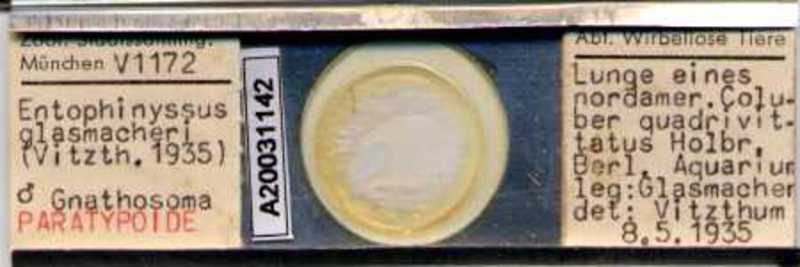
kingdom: Animalia
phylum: Arthropoda
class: Arachnida
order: Mesostigmata
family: Entonyssidae
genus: Entophionyssus
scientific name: Entophionyssus glasmacheri
